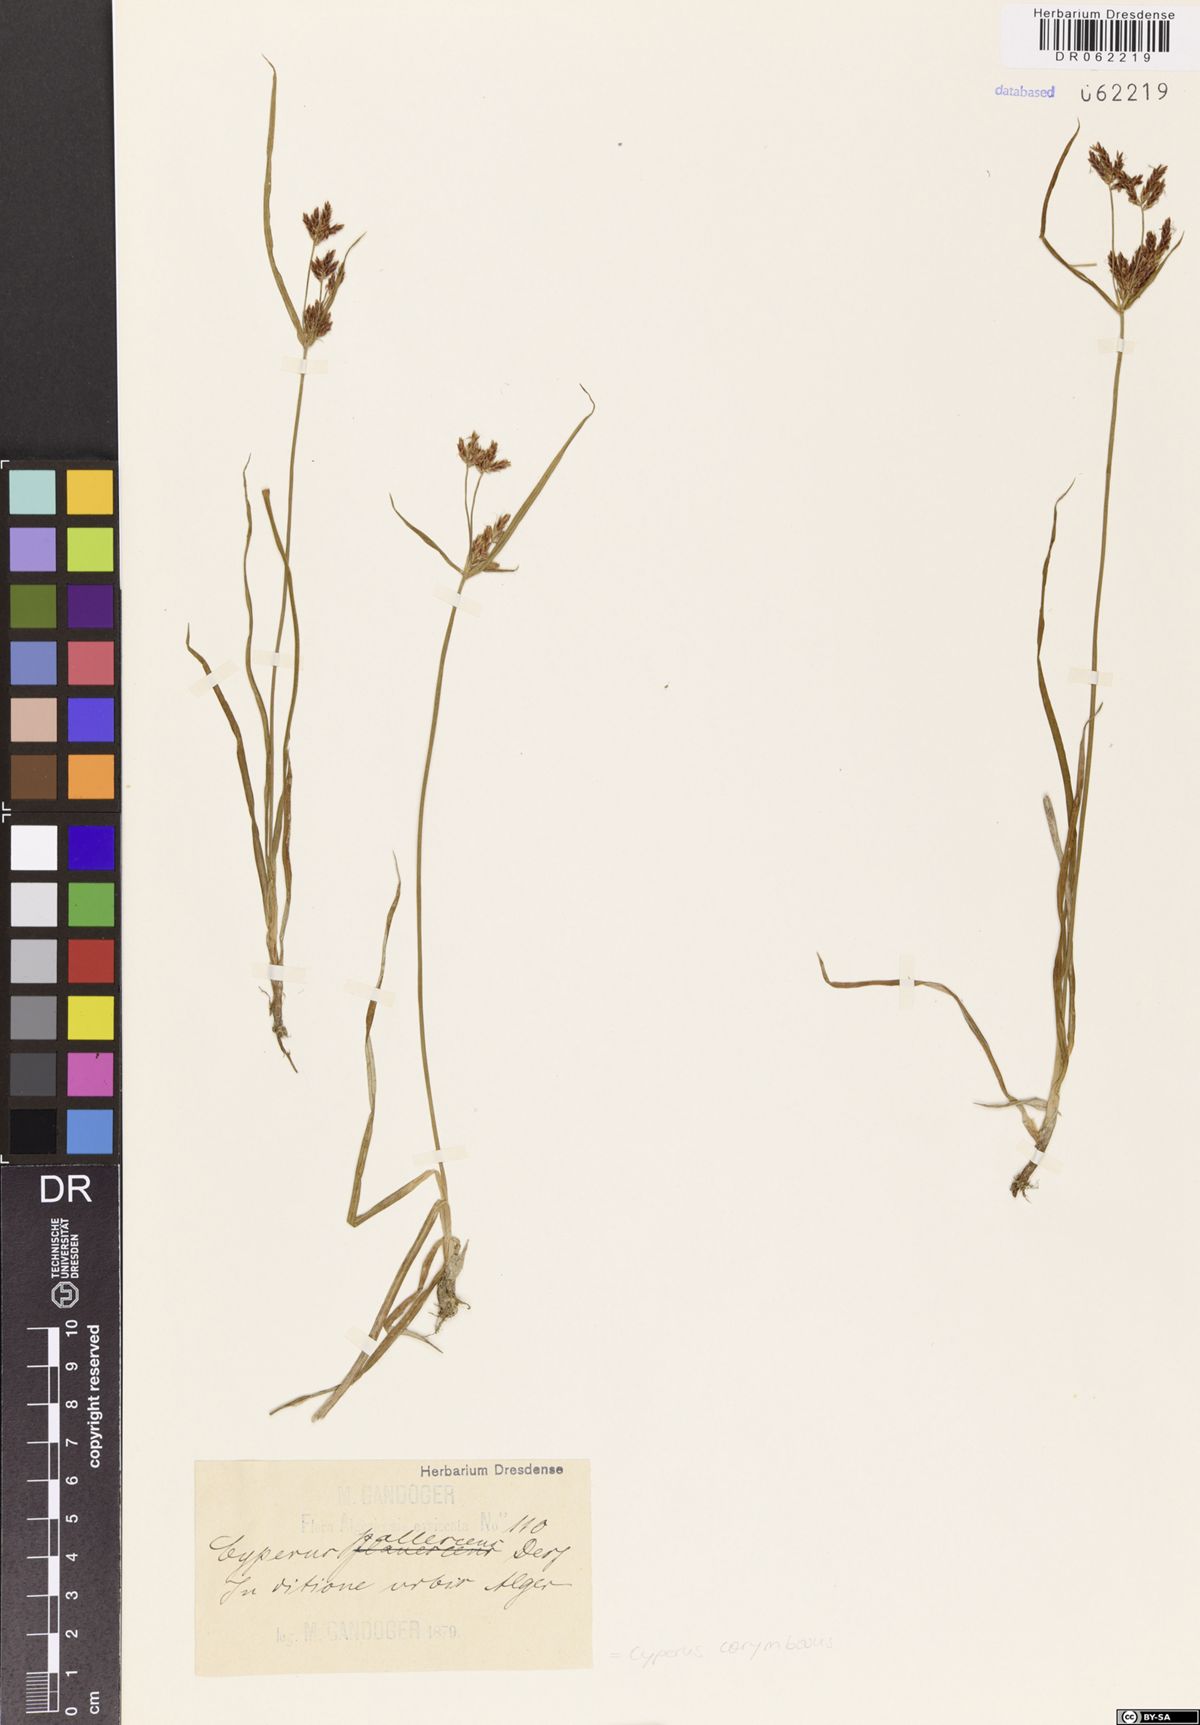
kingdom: Plantae
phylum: Tracheophyta
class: Liliopsida
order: Poales
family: Cyperaceae
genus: Cyperus
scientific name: Cyperus corymbosus
